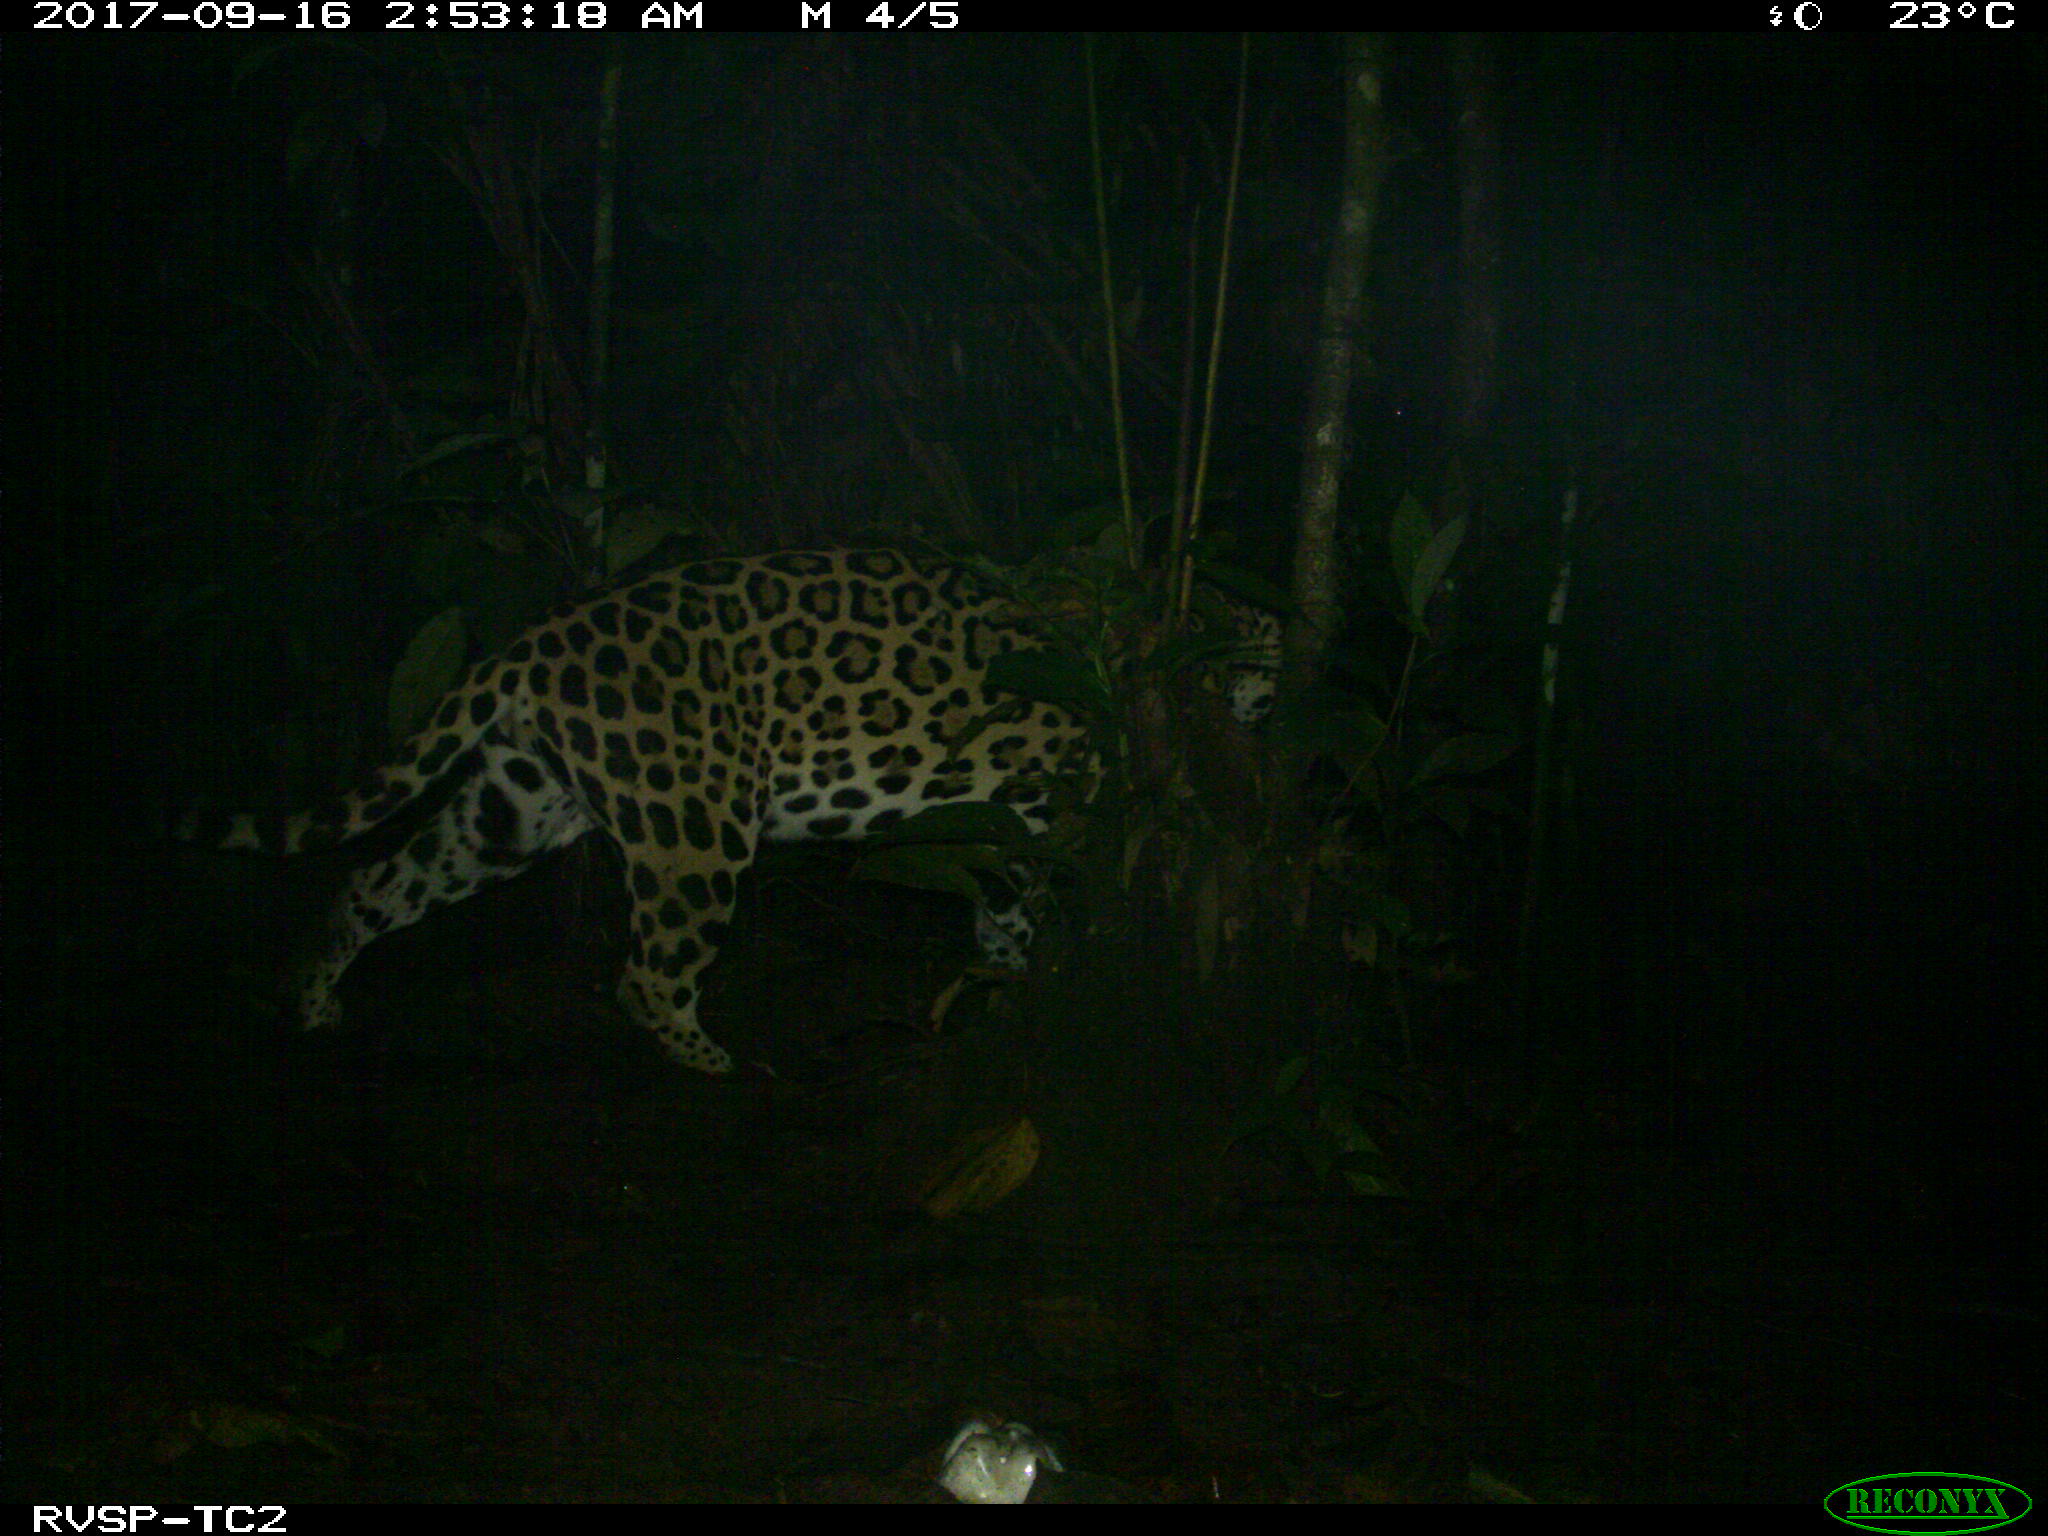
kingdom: Animalia
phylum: Chordata
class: Mammalia
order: Carnivora
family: Felidae
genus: Panthera
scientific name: Panthera onca
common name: Jaguar
